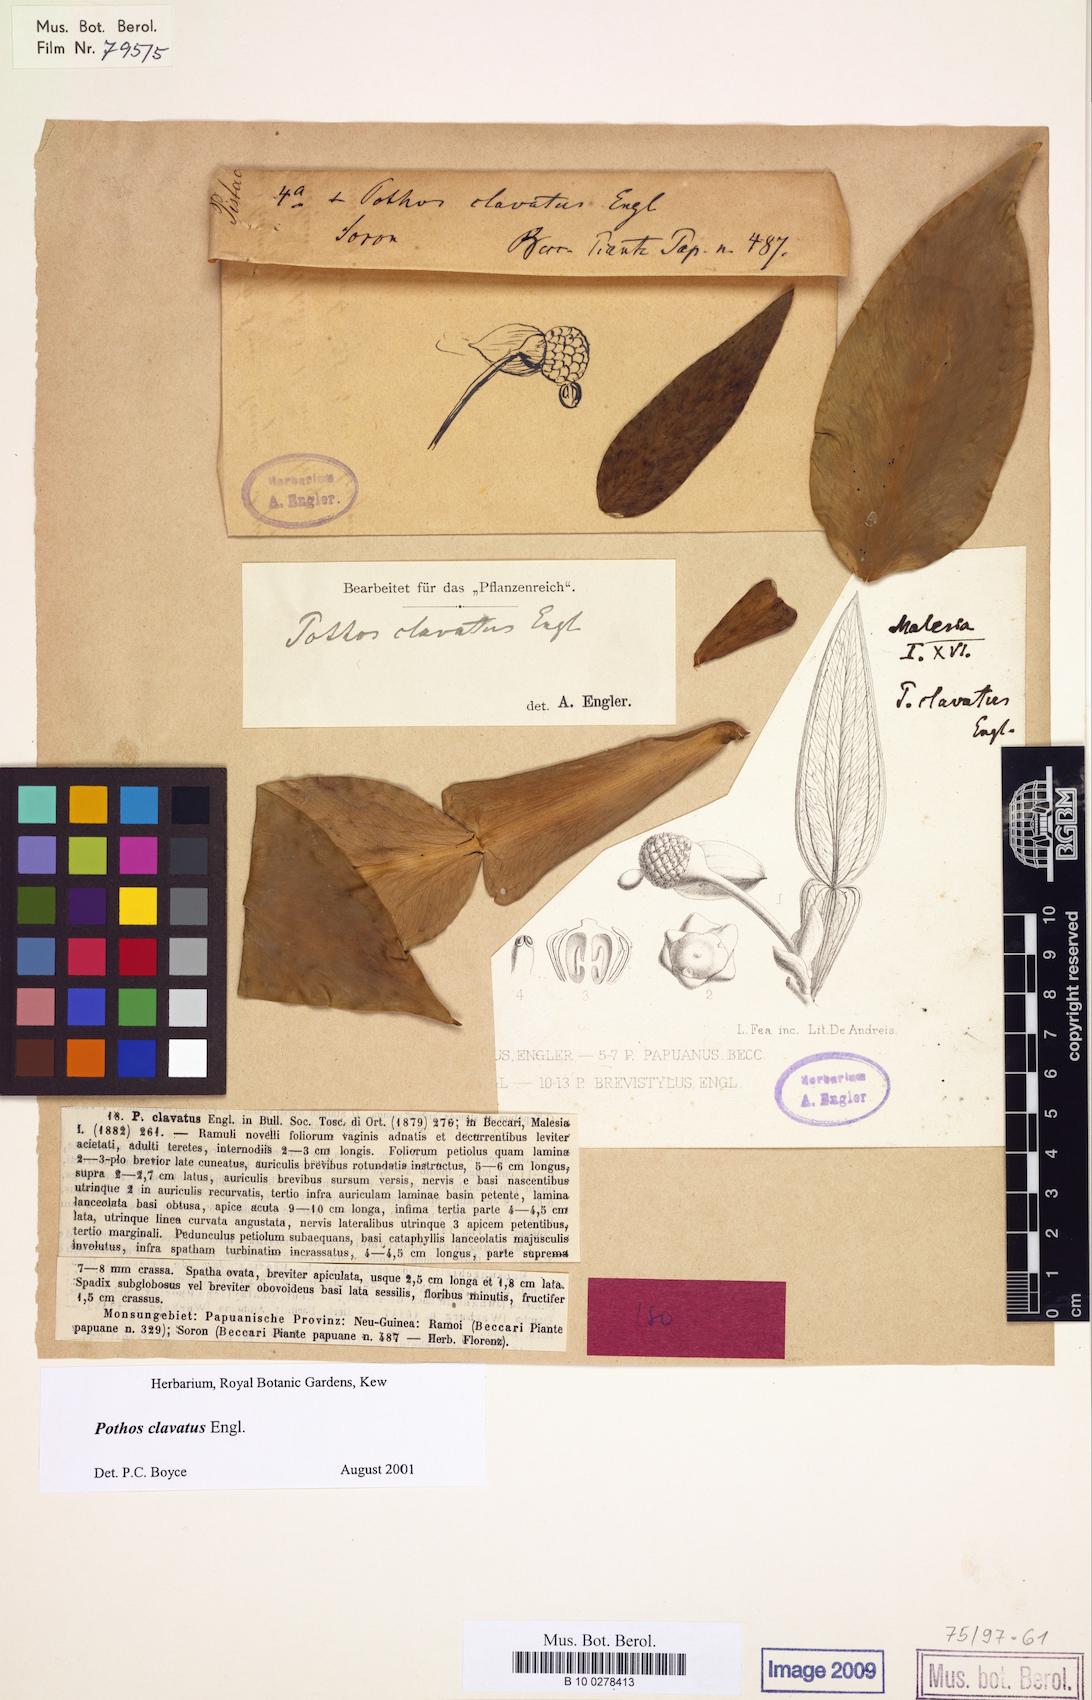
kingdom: Plantae
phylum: Tracheophyta
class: Liliopsida
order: Alismatales
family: Araceae
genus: Pothos
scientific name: Pothos clavatus
